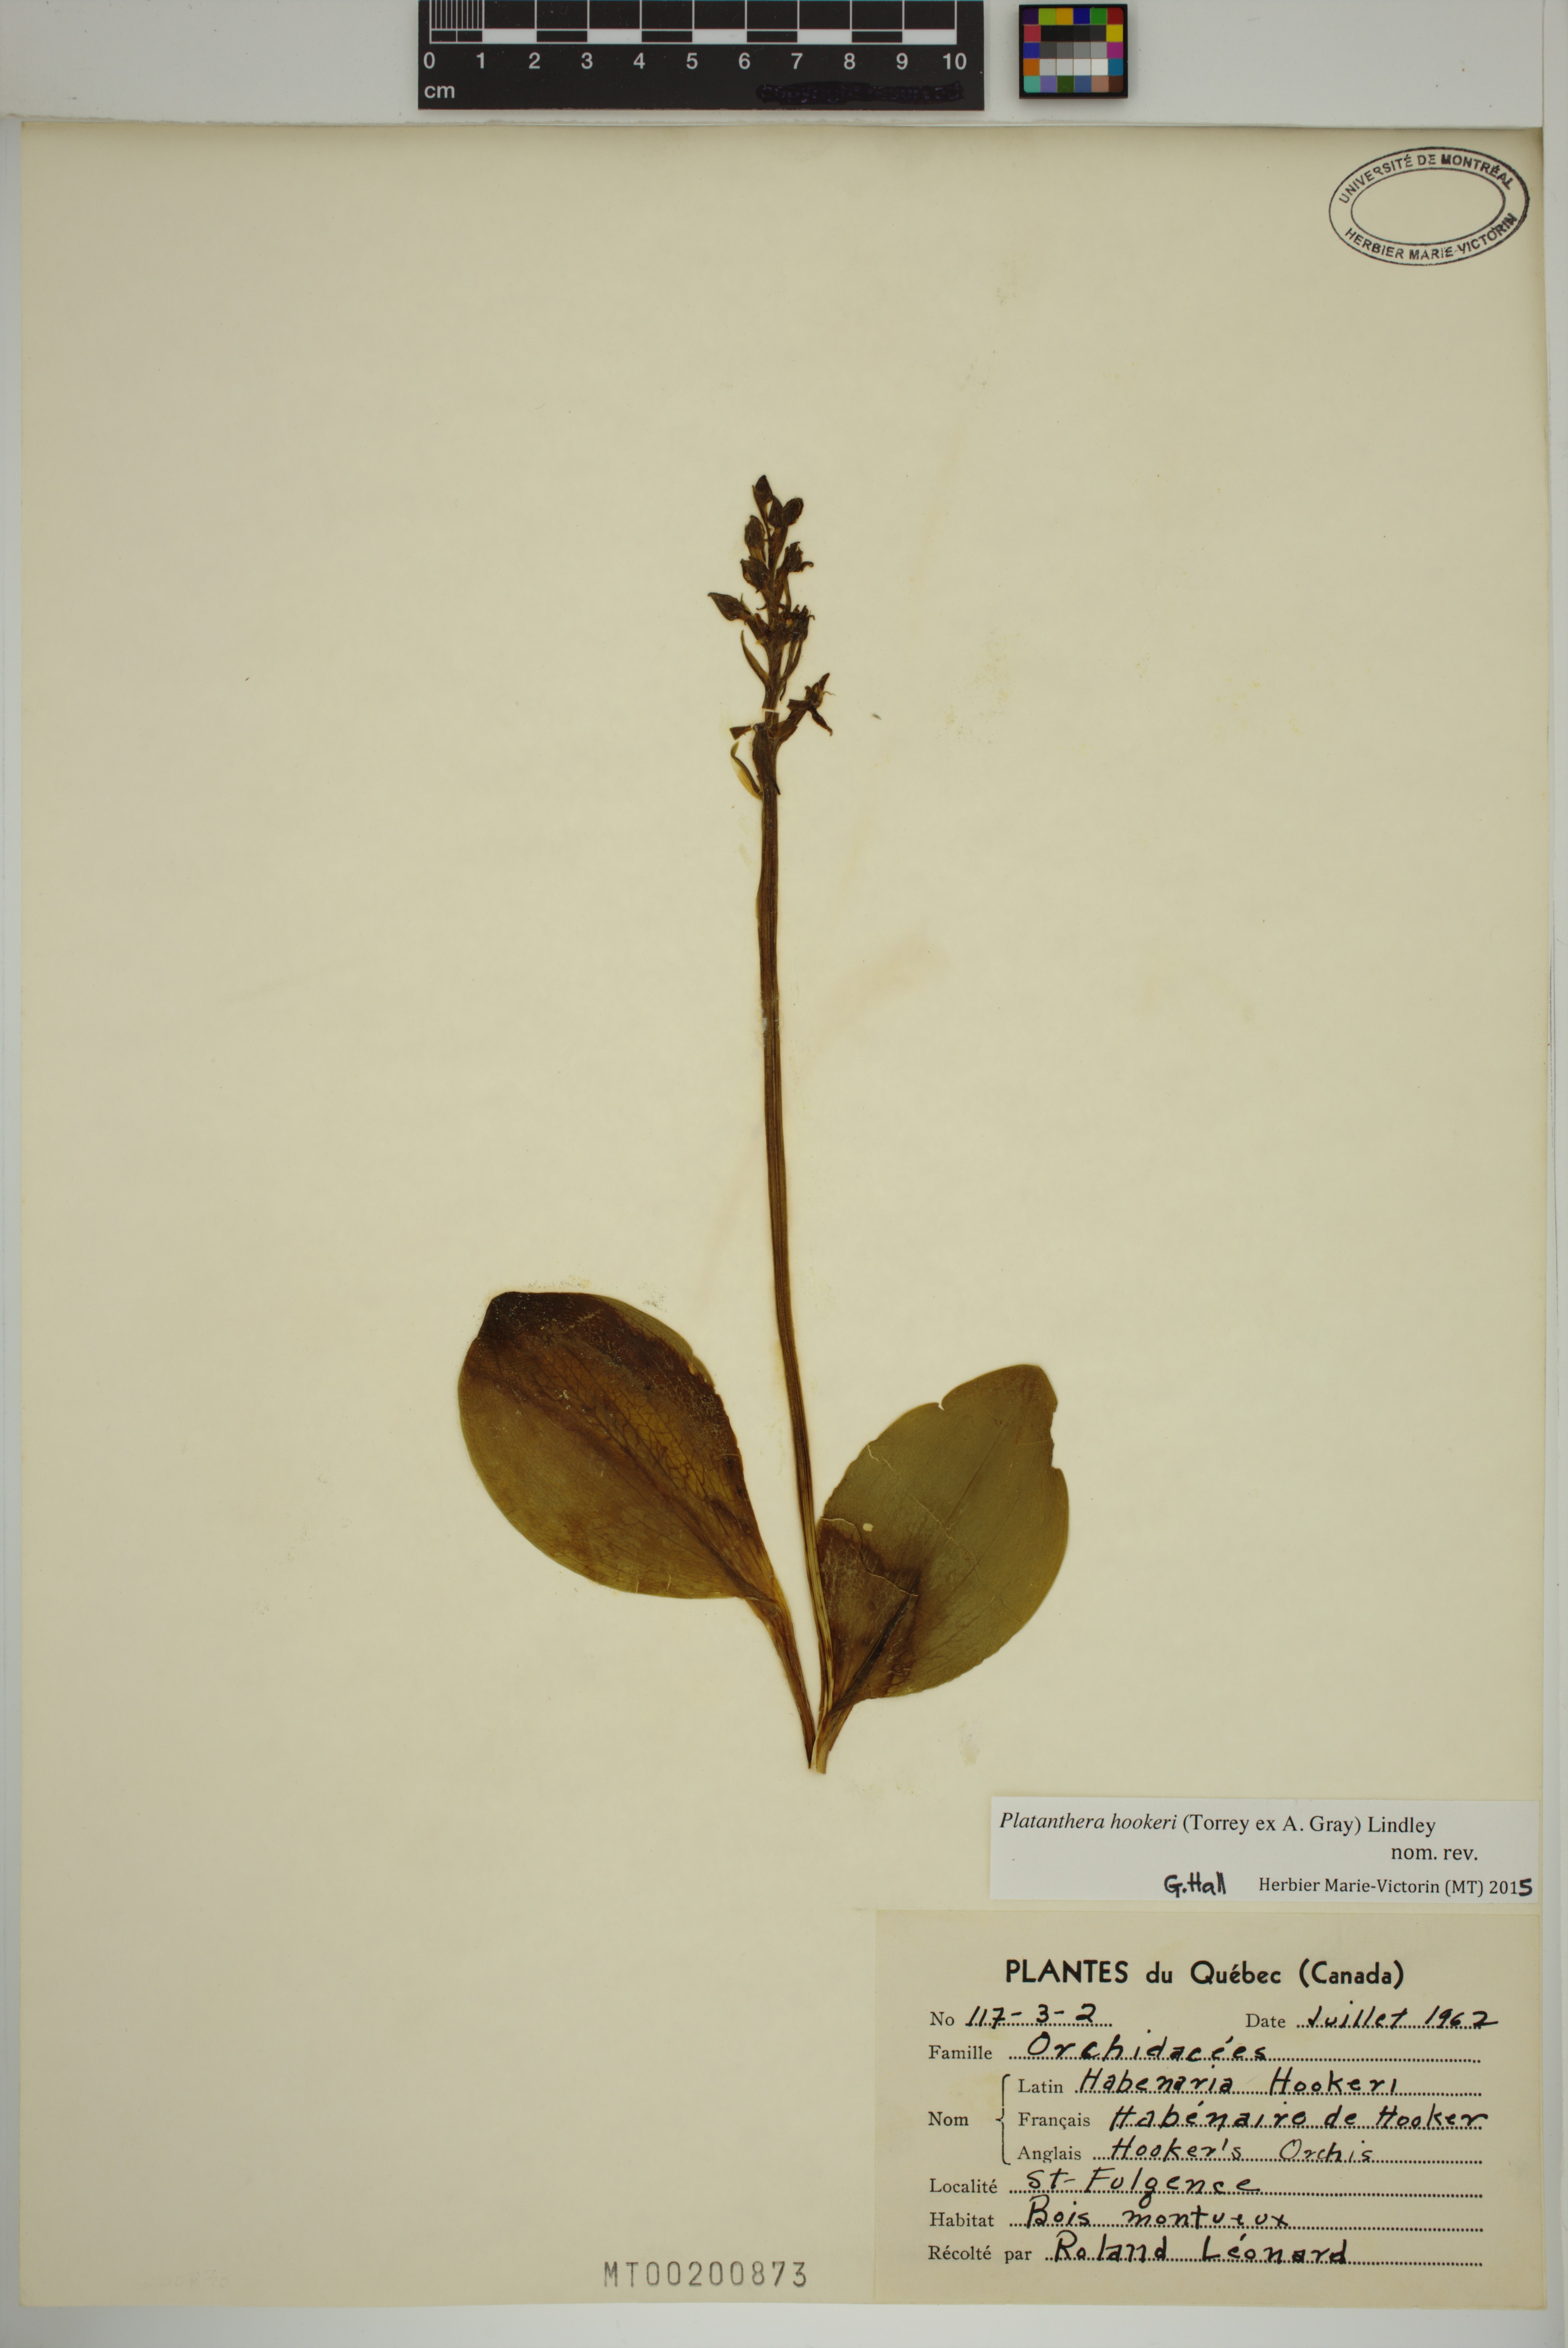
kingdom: Plantae
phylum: Tracheophyta
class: Liliopsida
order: Asparagales
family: Orchidaceae
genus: Platanthera
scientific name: Platanthera hookeri
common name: Hooker's orchid
